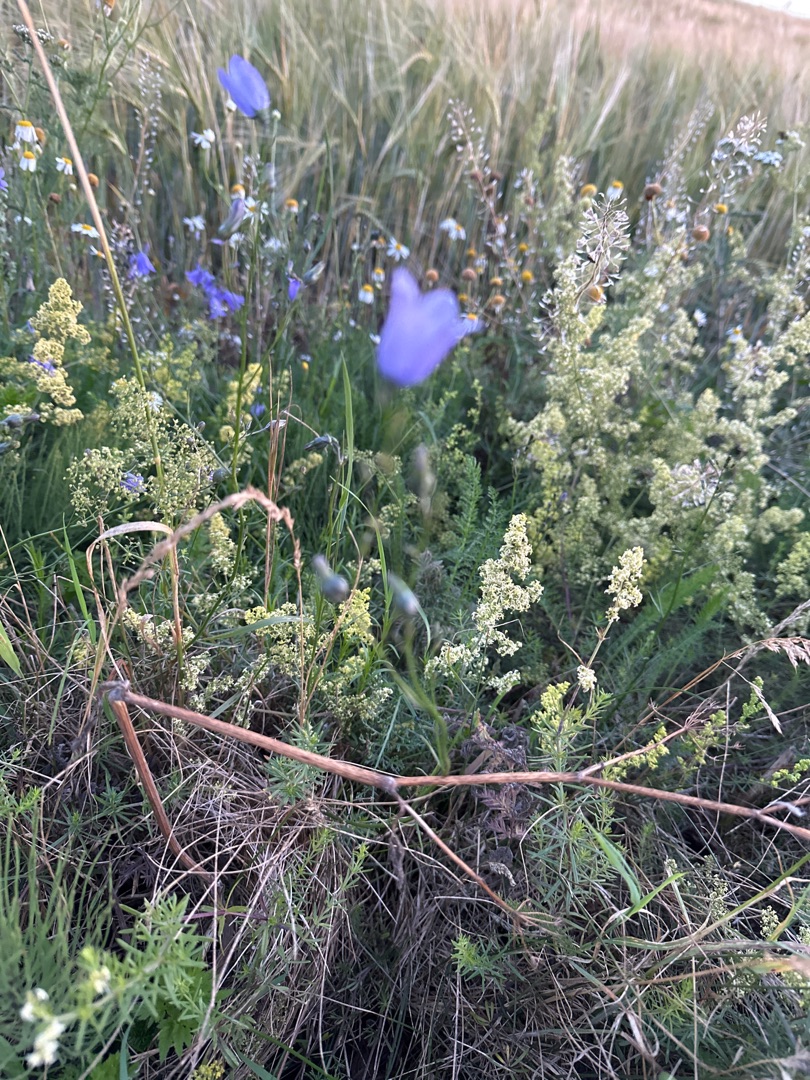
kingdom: Plantae
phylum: Tracheophyta
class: Magnoliopsida
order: Asterales
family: Campanulaceae
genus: Campanula
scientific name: Campanula rotundifolia
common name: Liden klokke
